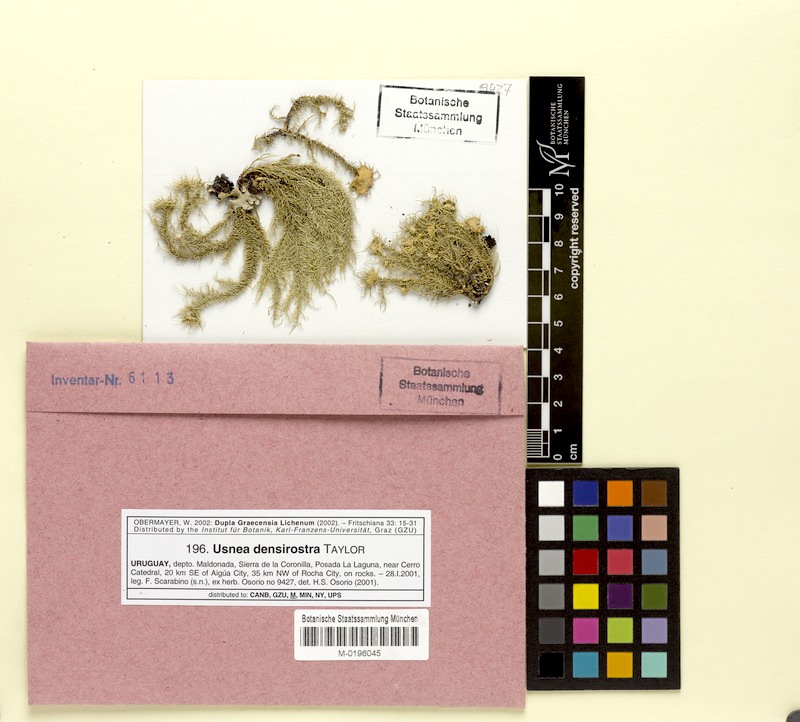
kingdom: Fungi
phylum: Ascomycota
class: Lecanoromycetes
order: Lecanorales
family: Parmeliaceae
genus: Usnea
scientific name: Usnea densirostra
